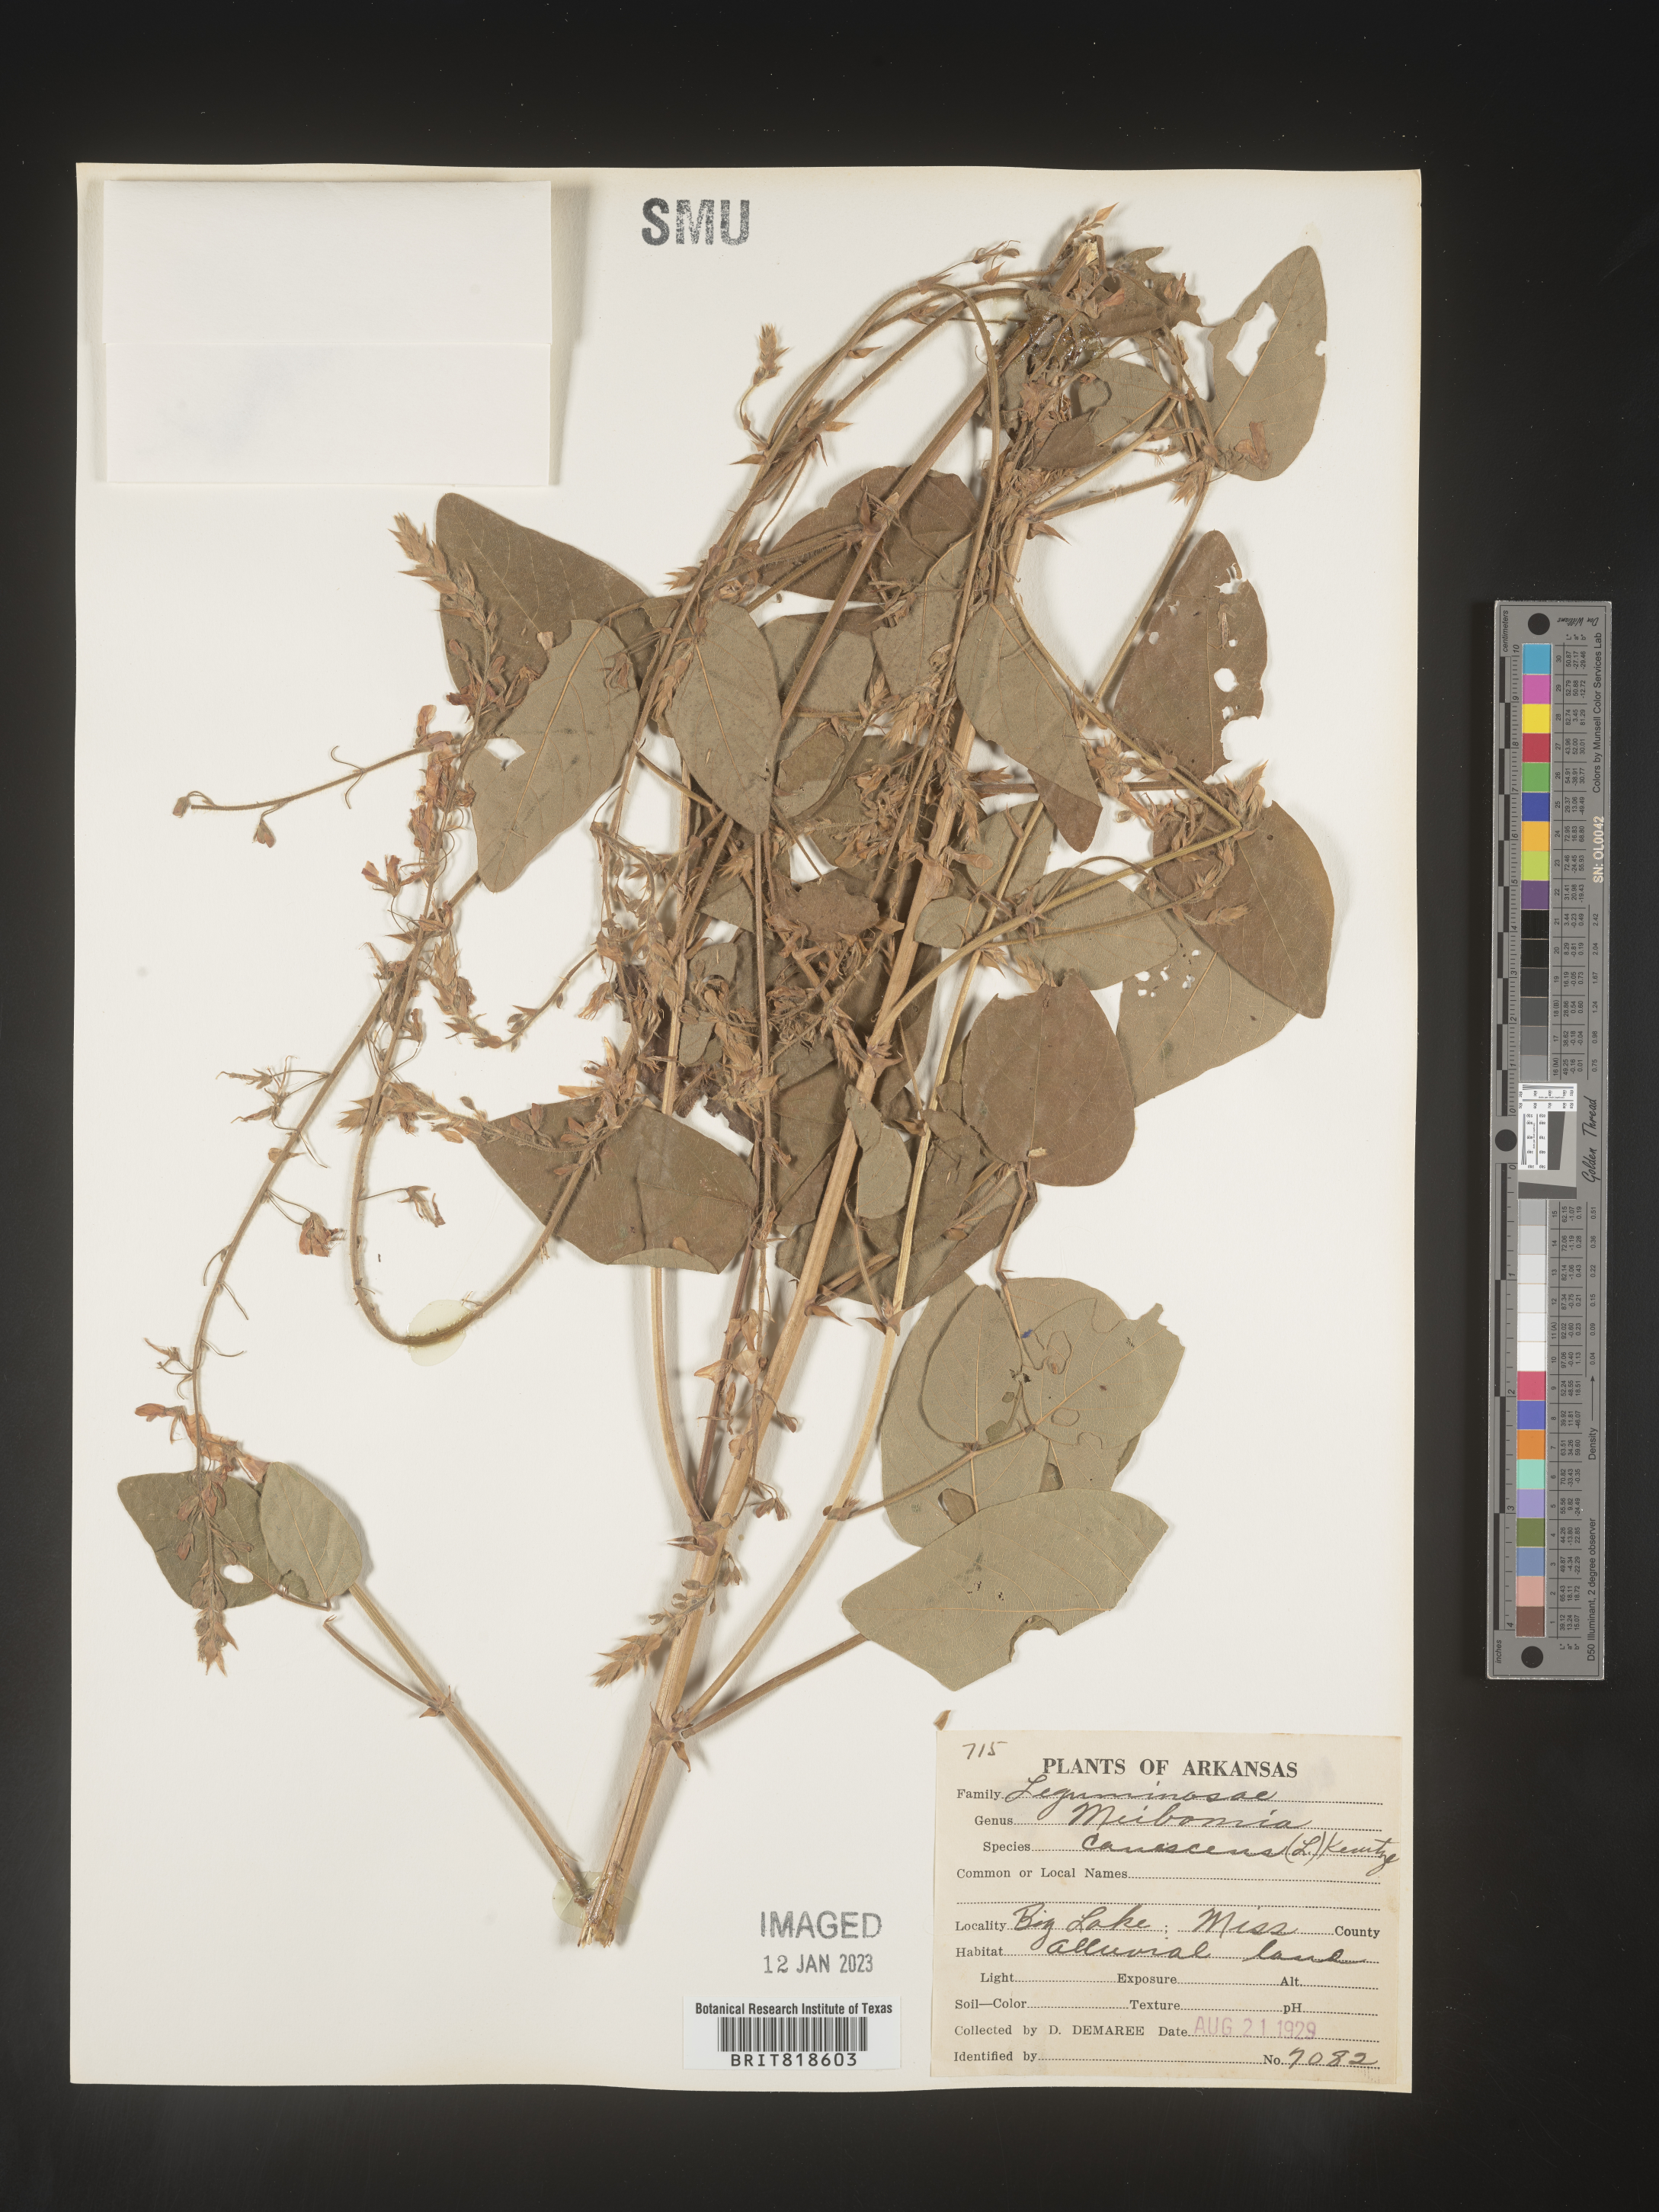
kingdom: Plantae
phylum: Tracheophyta
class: Magnoliopsida
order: Fabales
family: Fabaceae
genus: Desmodium
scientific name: Desmodium canescens
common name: Hoary tick-clover
